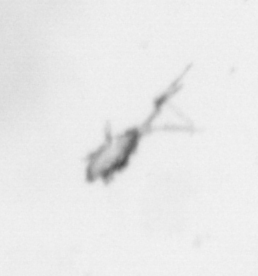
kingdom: Animalia
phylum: Arthropoda
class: Maxillopoda
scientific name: Maxillopoda
